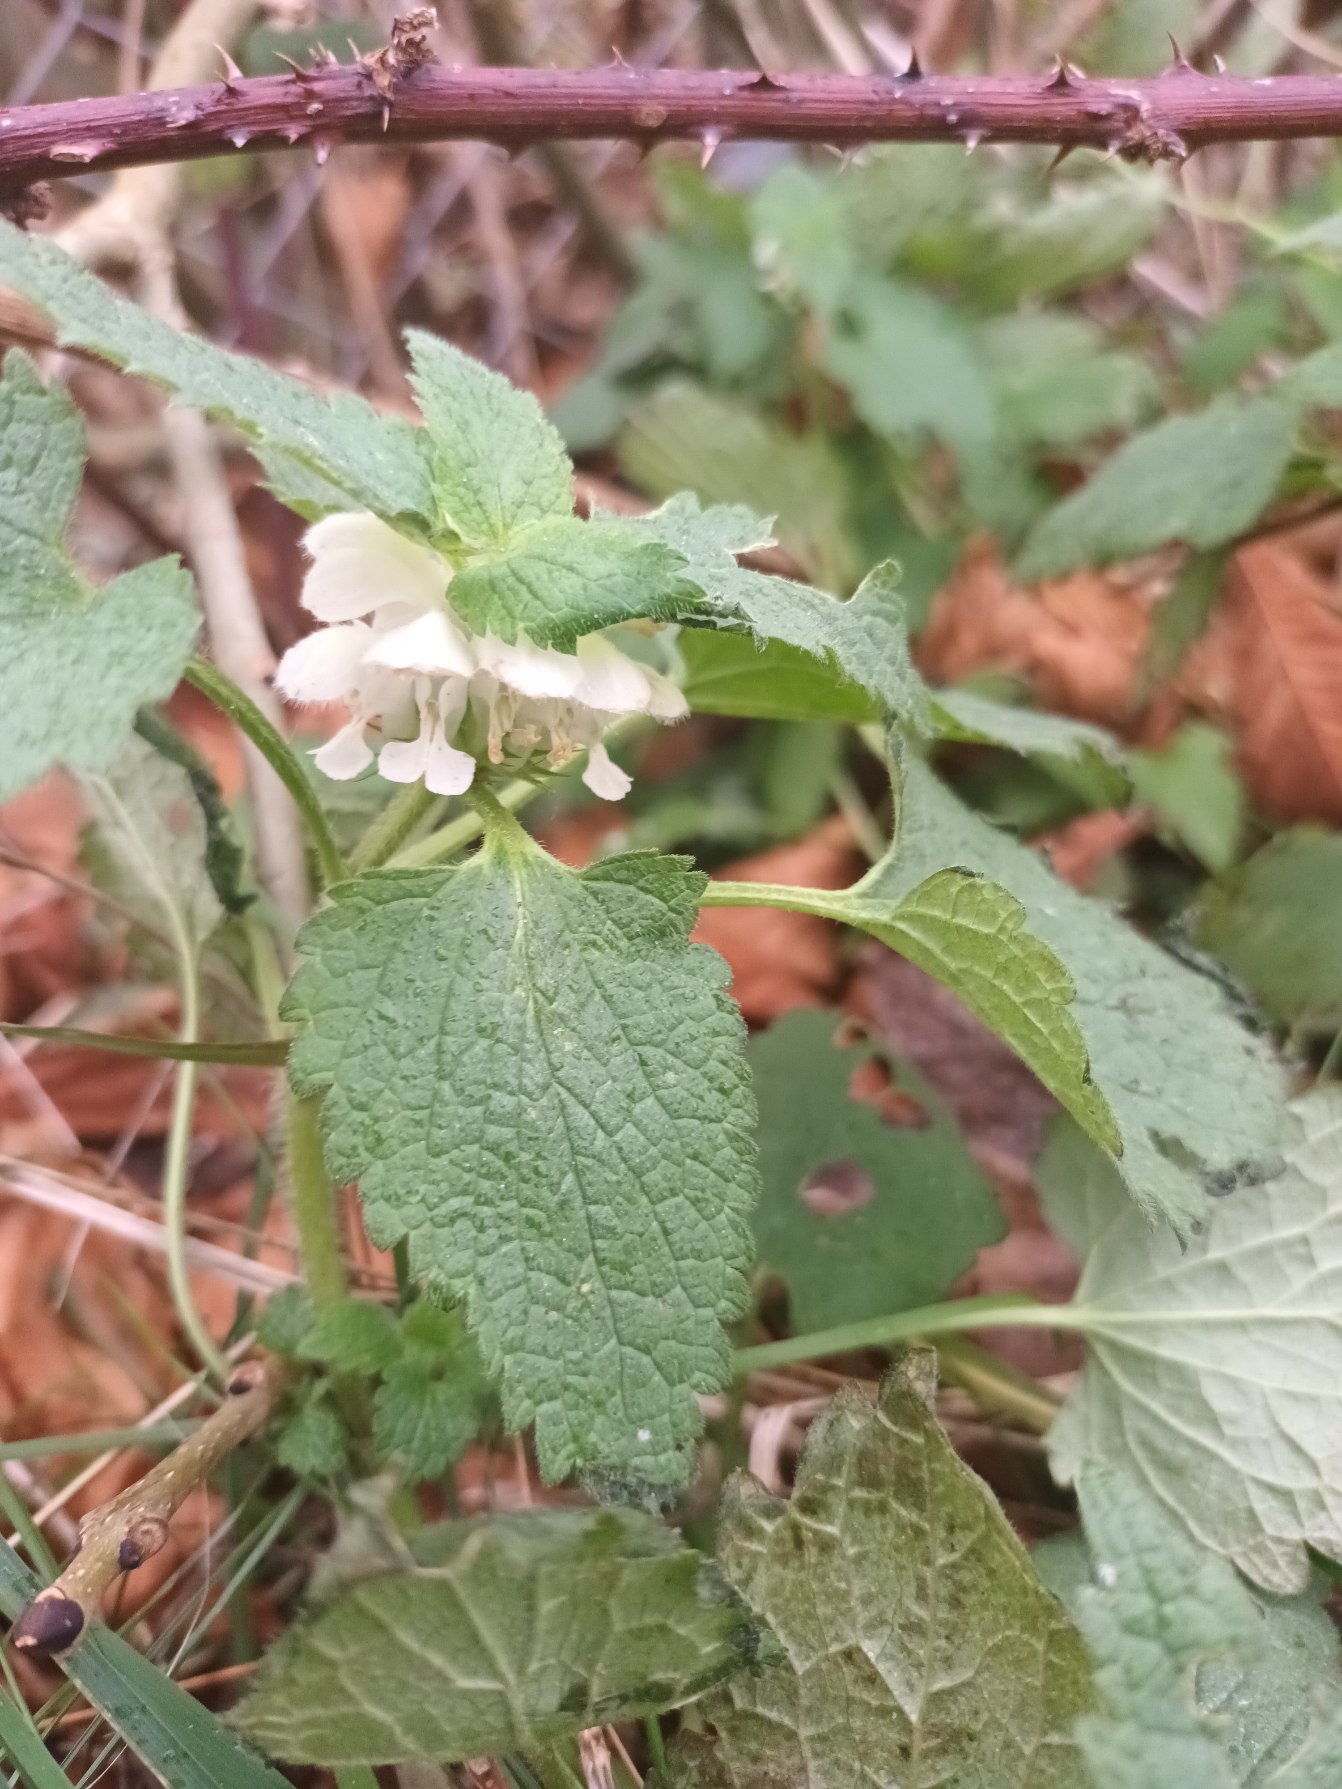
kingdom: Plantae
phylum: Tracheophyta
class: Magnoliopsida
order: Lamiales
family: Lamiaceae
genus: Lamium
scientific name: Lamium album
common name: Døvnælde
